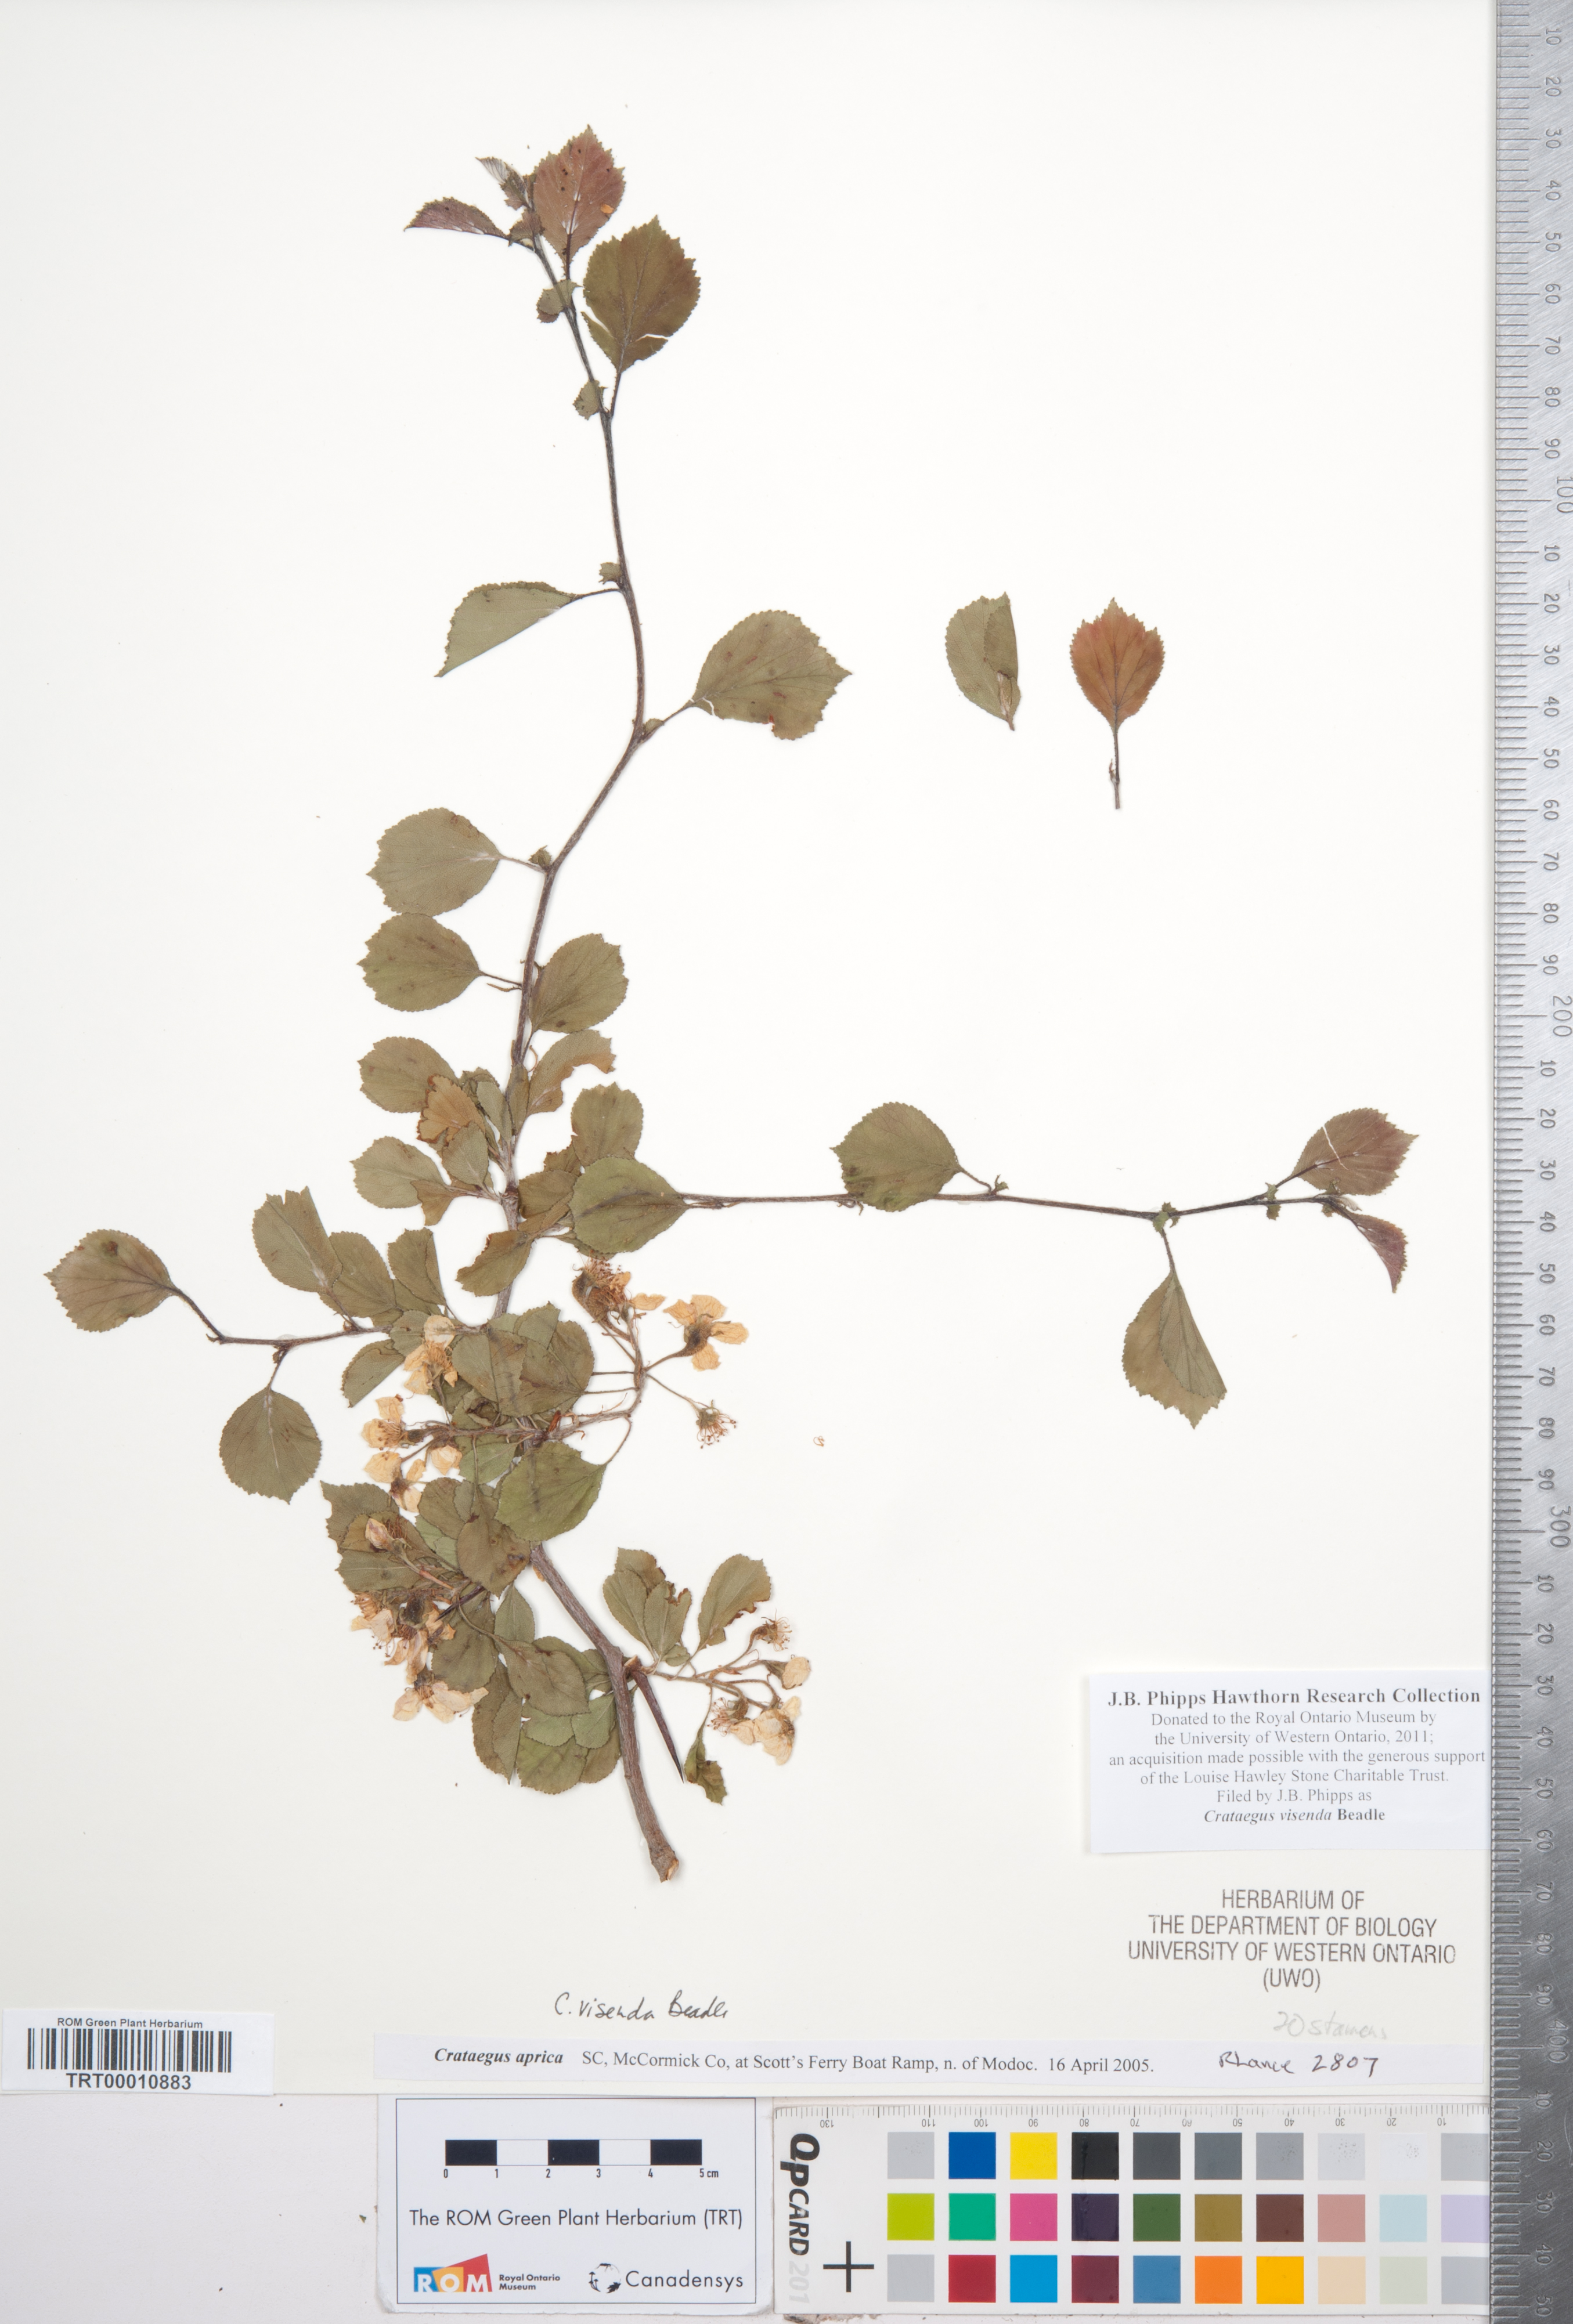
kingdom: Plantae
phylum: Tracheophyta
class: Magnoliopsida
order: Rosales
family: Rosaceae
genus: Crataegus
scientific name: Crataegus sororia
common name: Sister hawthorn
